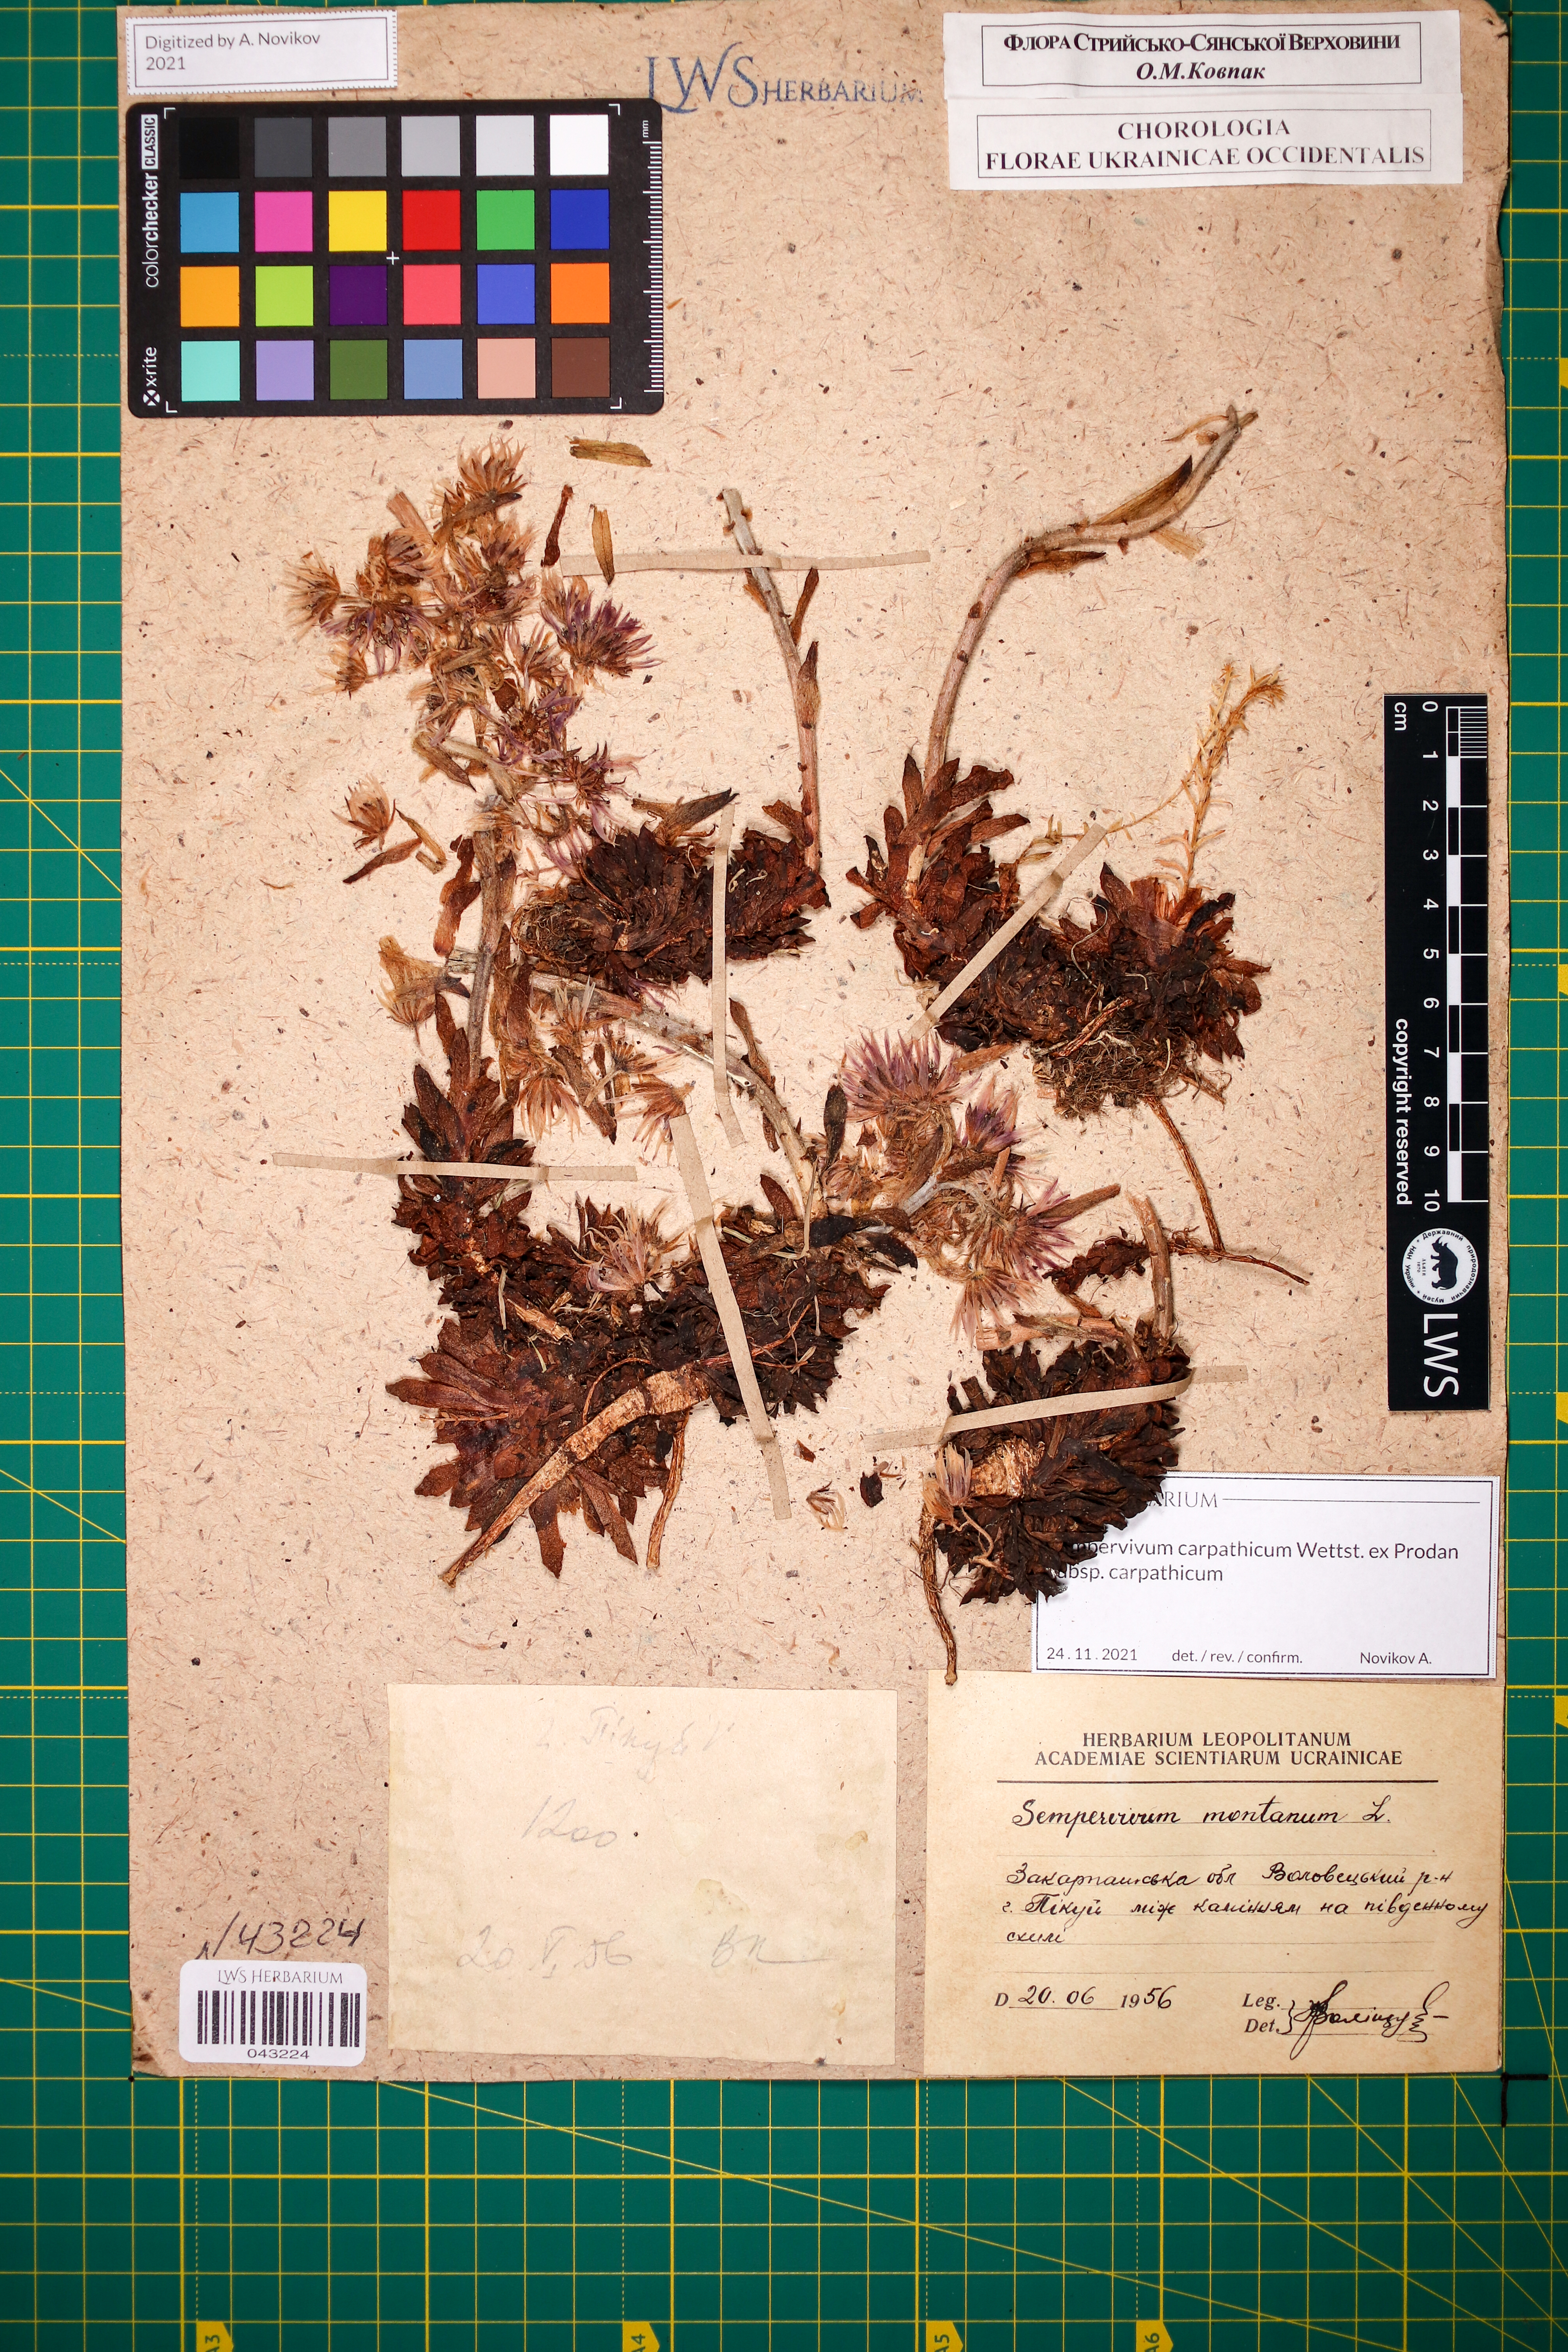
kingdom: Plantae
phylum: Tracheophyta
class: Magnoliopsida
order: Saxifragales
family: Crassulaceae
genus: Sempervivum
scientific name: Sempervivum montanum
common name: Mountain house-leek
